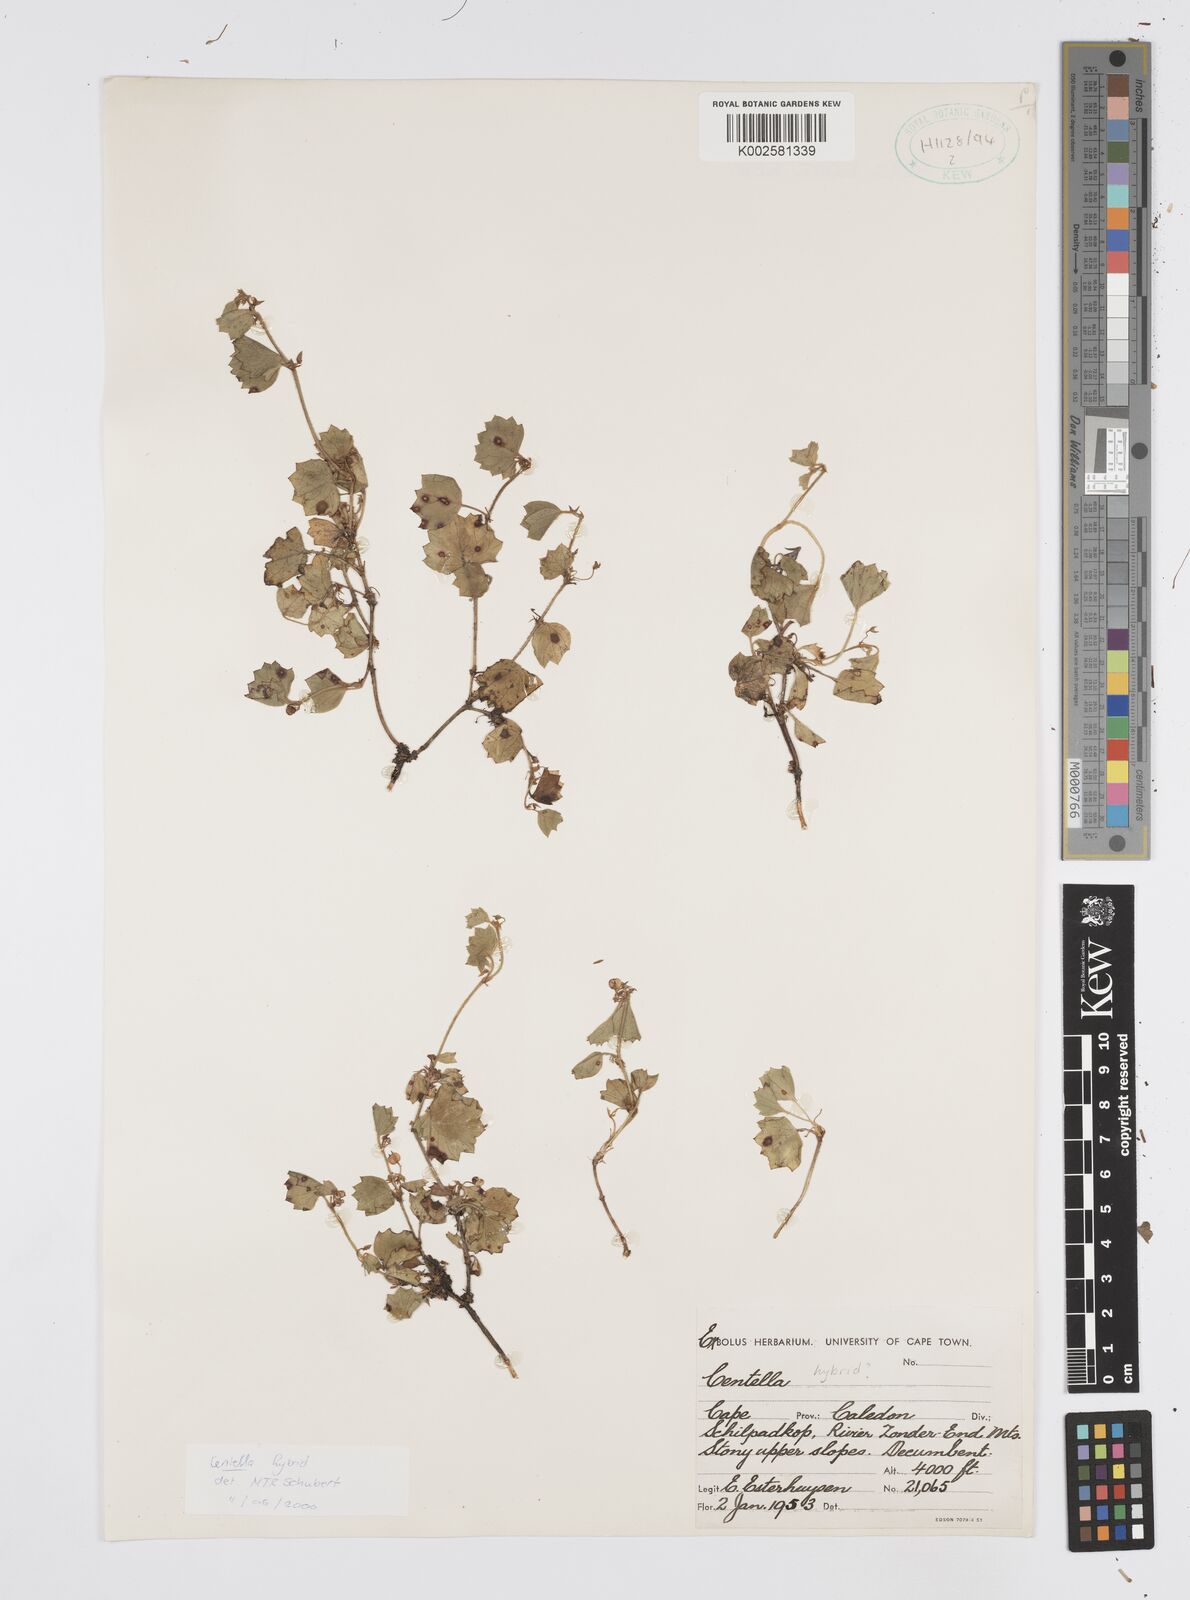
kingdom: Plantae
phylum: Tracheophyta
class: Magnoliopsida
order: Apiales
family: Apiaceae
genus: Centella
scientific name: Centella
